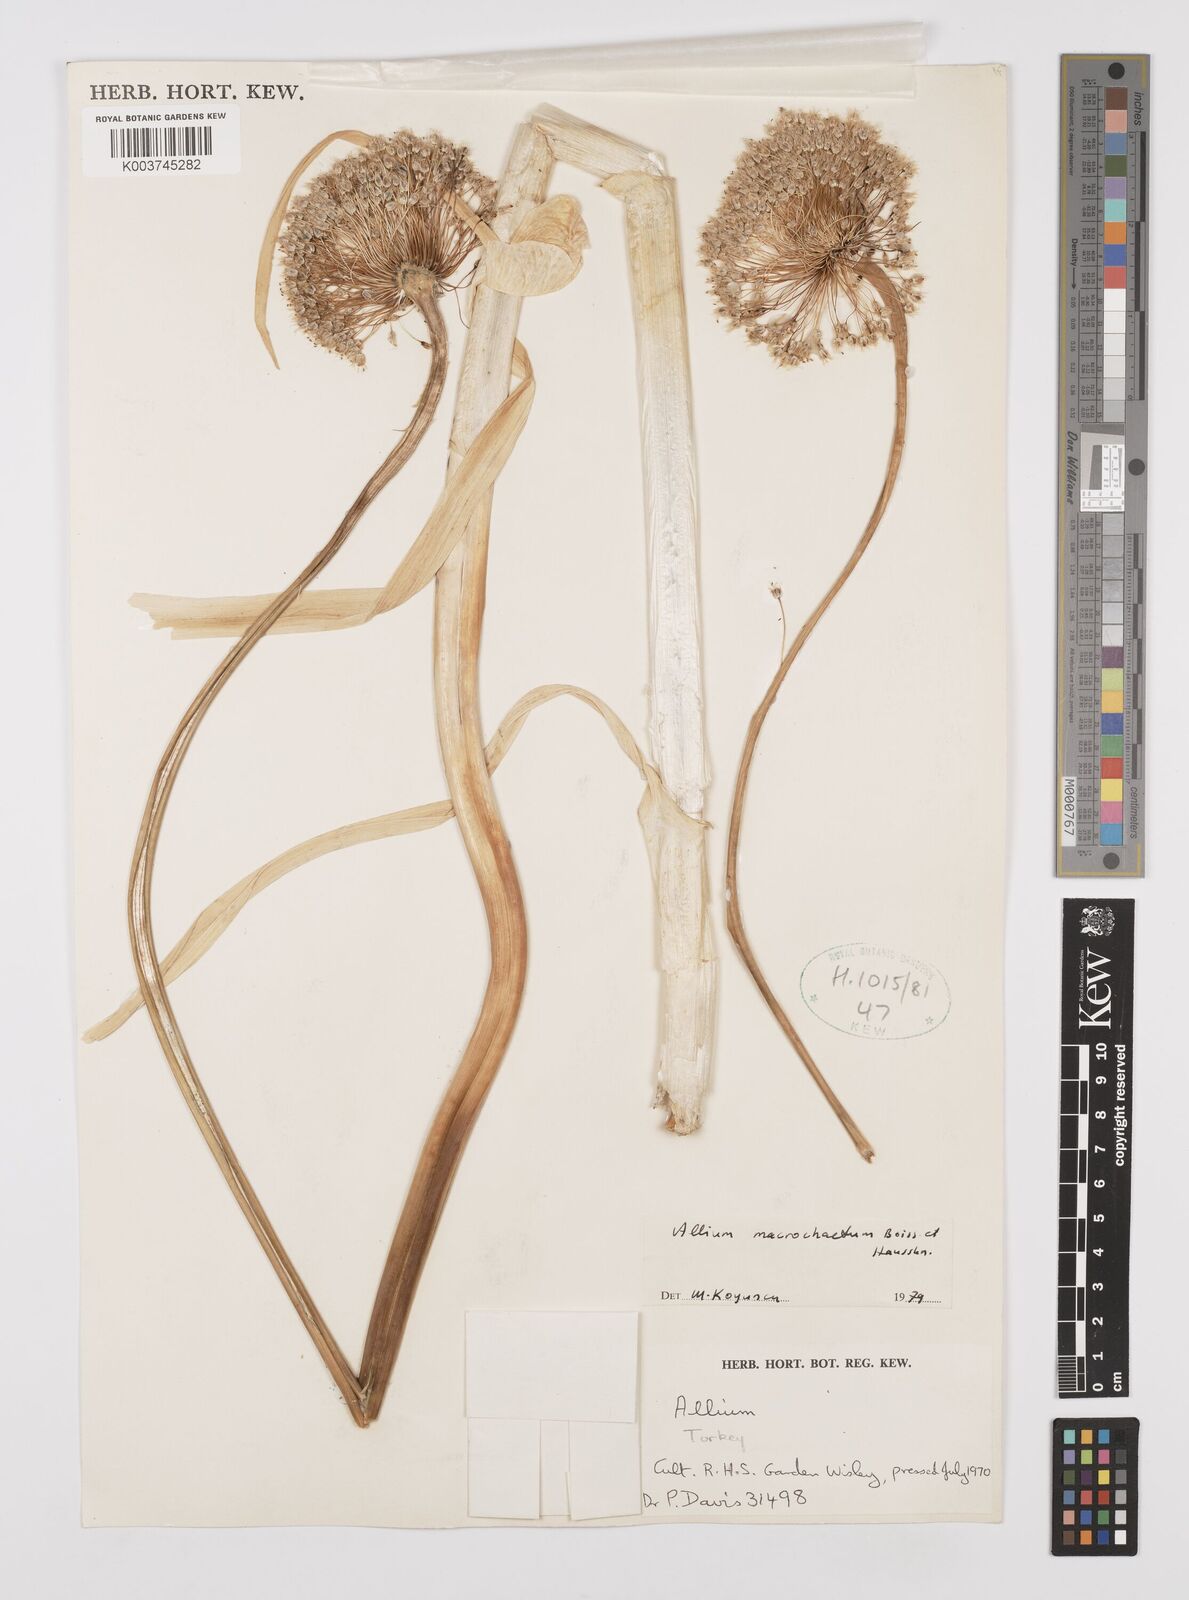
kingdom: Plantae
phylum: Tracheophyta
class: Liliopsida
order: Asparagales
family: Amaryllidaceae
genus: Allium
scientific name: Allium tuncelianum
